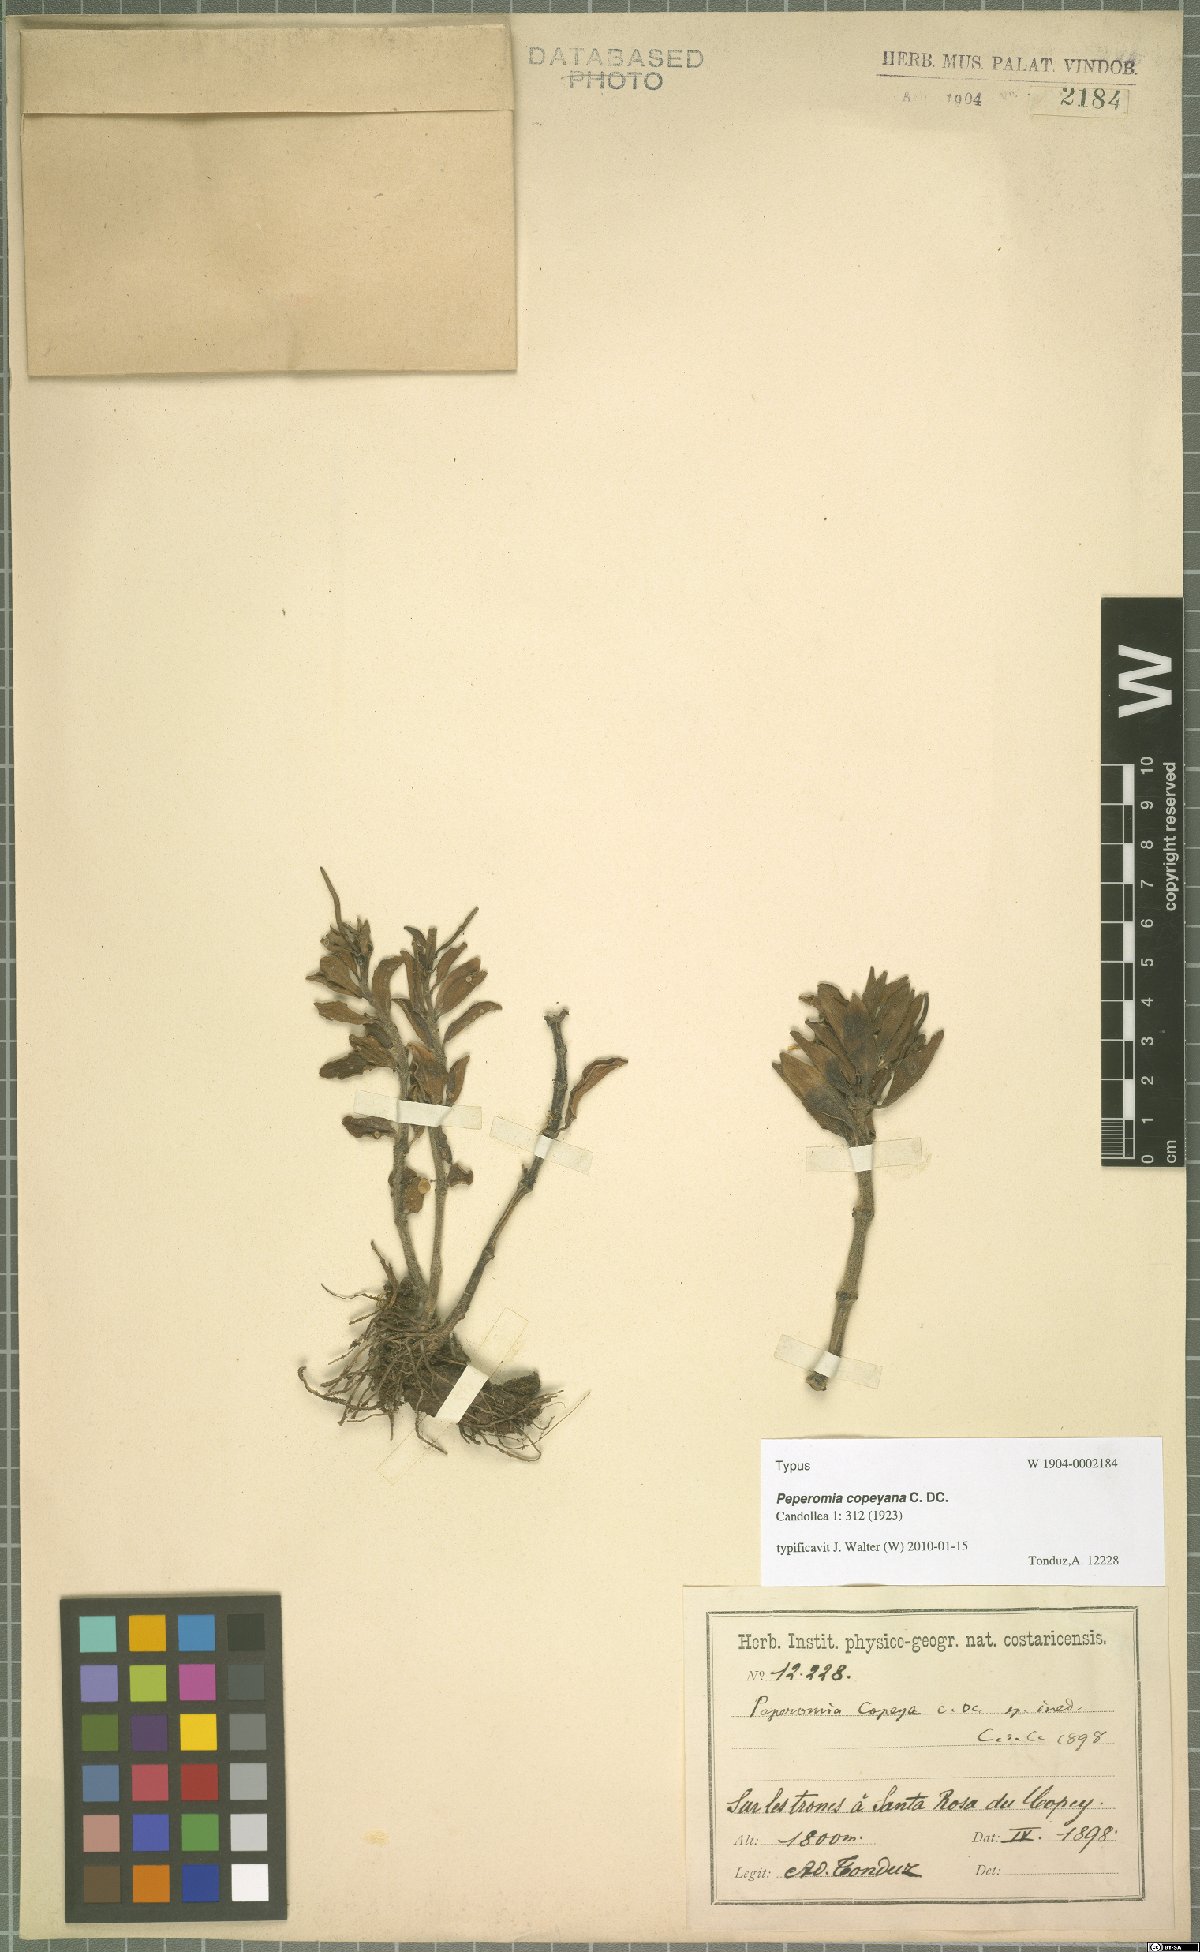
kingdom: Plantae
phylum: Tracheophyta
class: Magnoliopsida
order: Piperales
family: Piperaceae
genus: Peperomia
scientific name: Peperomia olivacea
